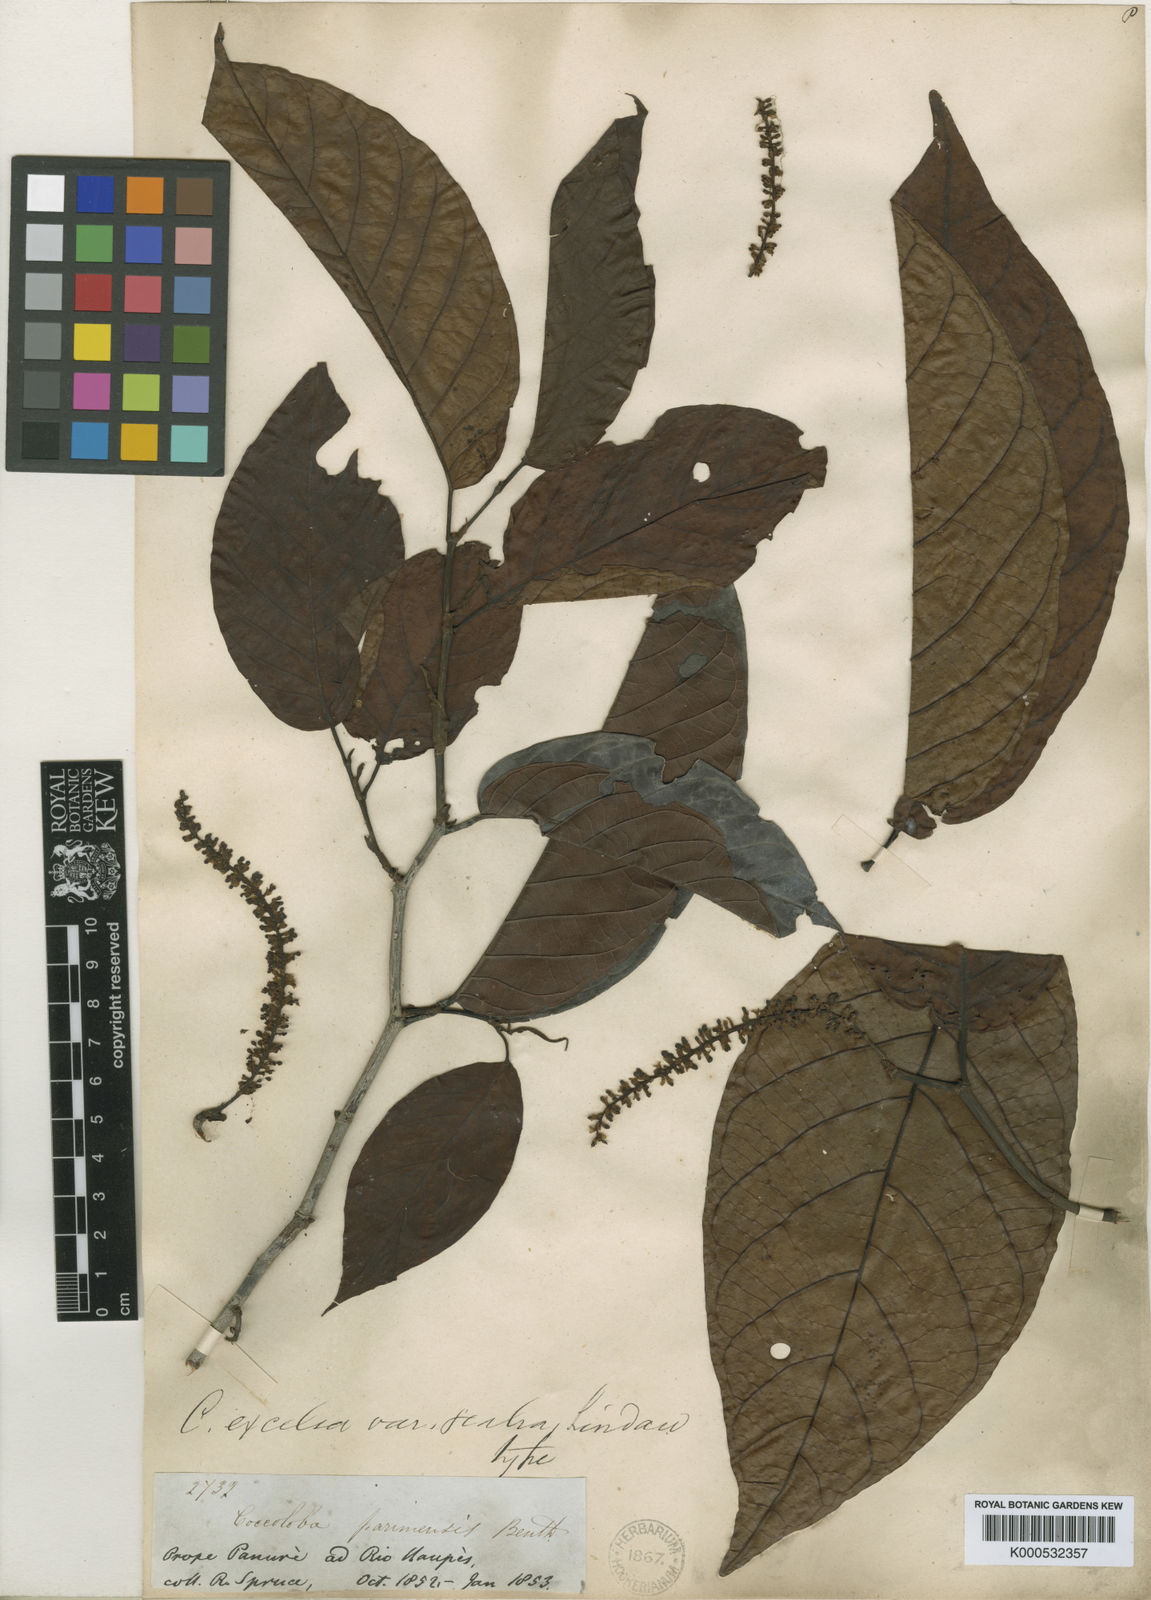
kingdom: Plantae
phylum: Tracheophyta
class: Magnoliopsida
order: Caryophyllales
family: Polygonaceae
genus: Coccoloba
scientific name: Coccoloba excelsa
